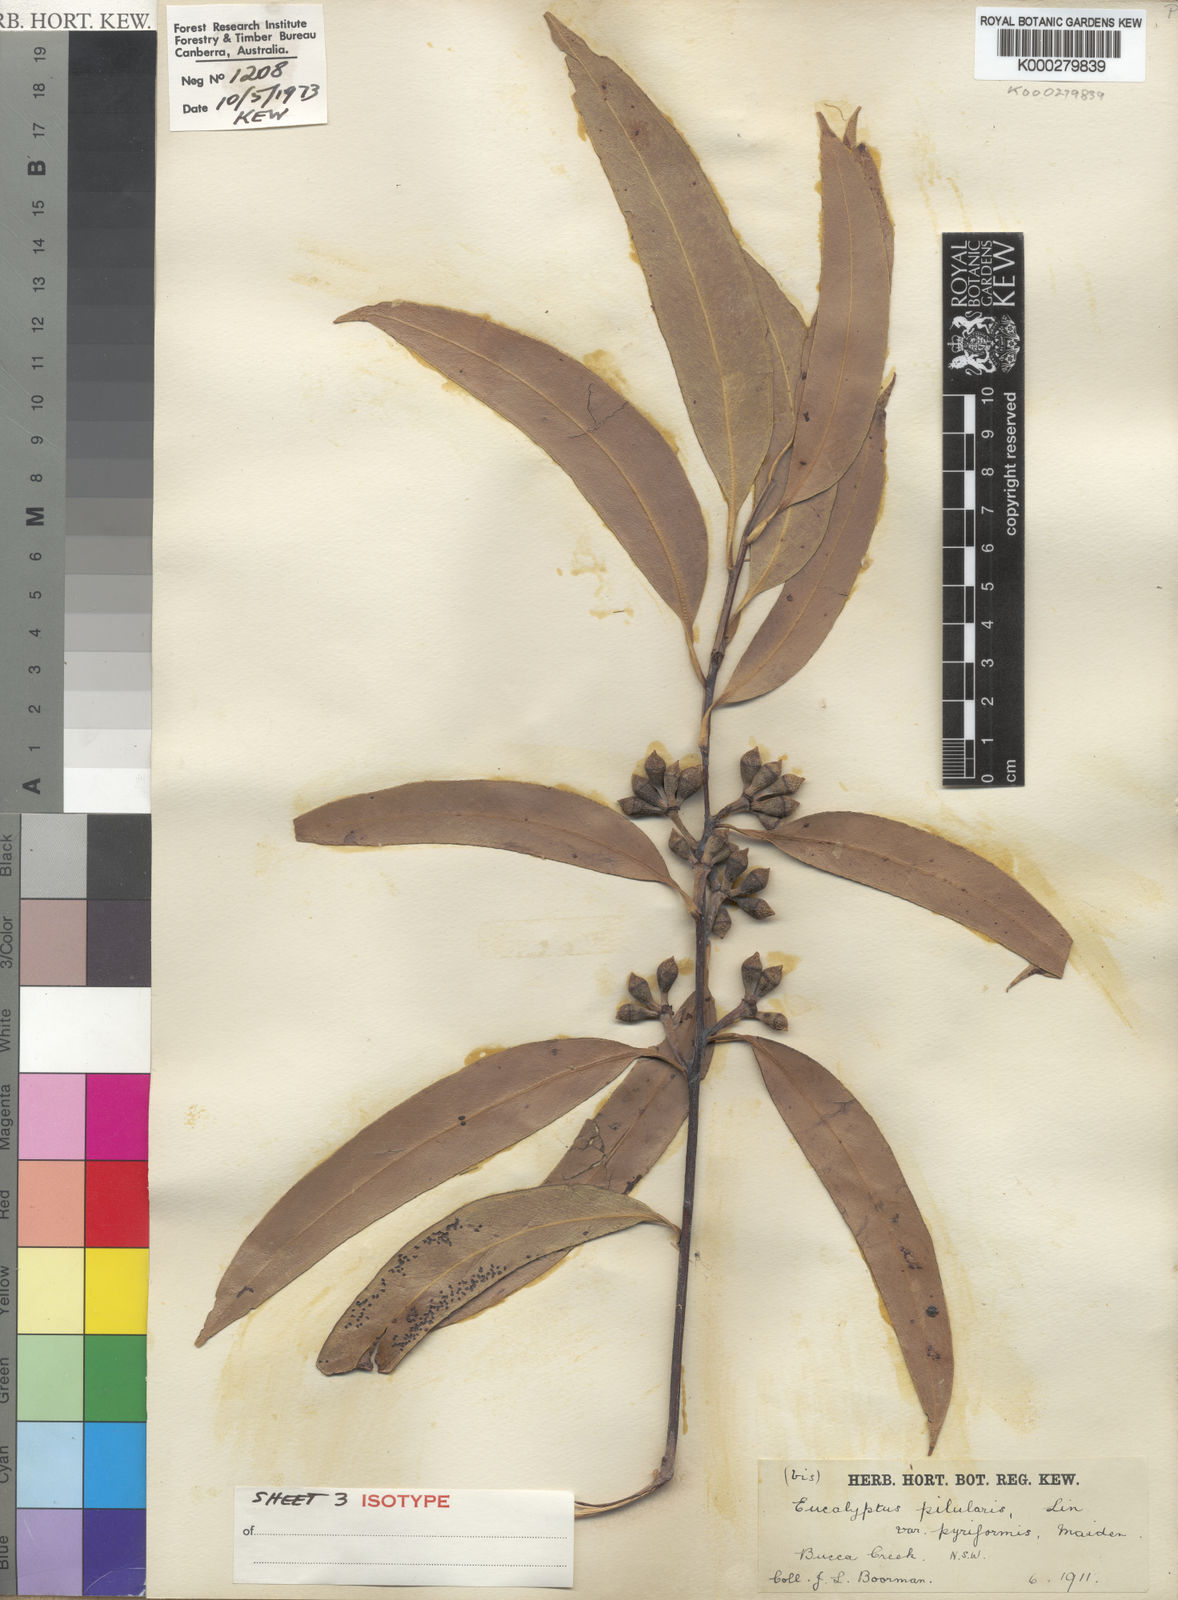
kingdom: Plantae
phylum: Tracheophyta
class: Magnoliopsida
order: Myrtales
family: Myrtaceae
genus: Eucalyptus
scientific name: Eucalyptus pyrocarpa
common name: Large-fruited-blackbutt
